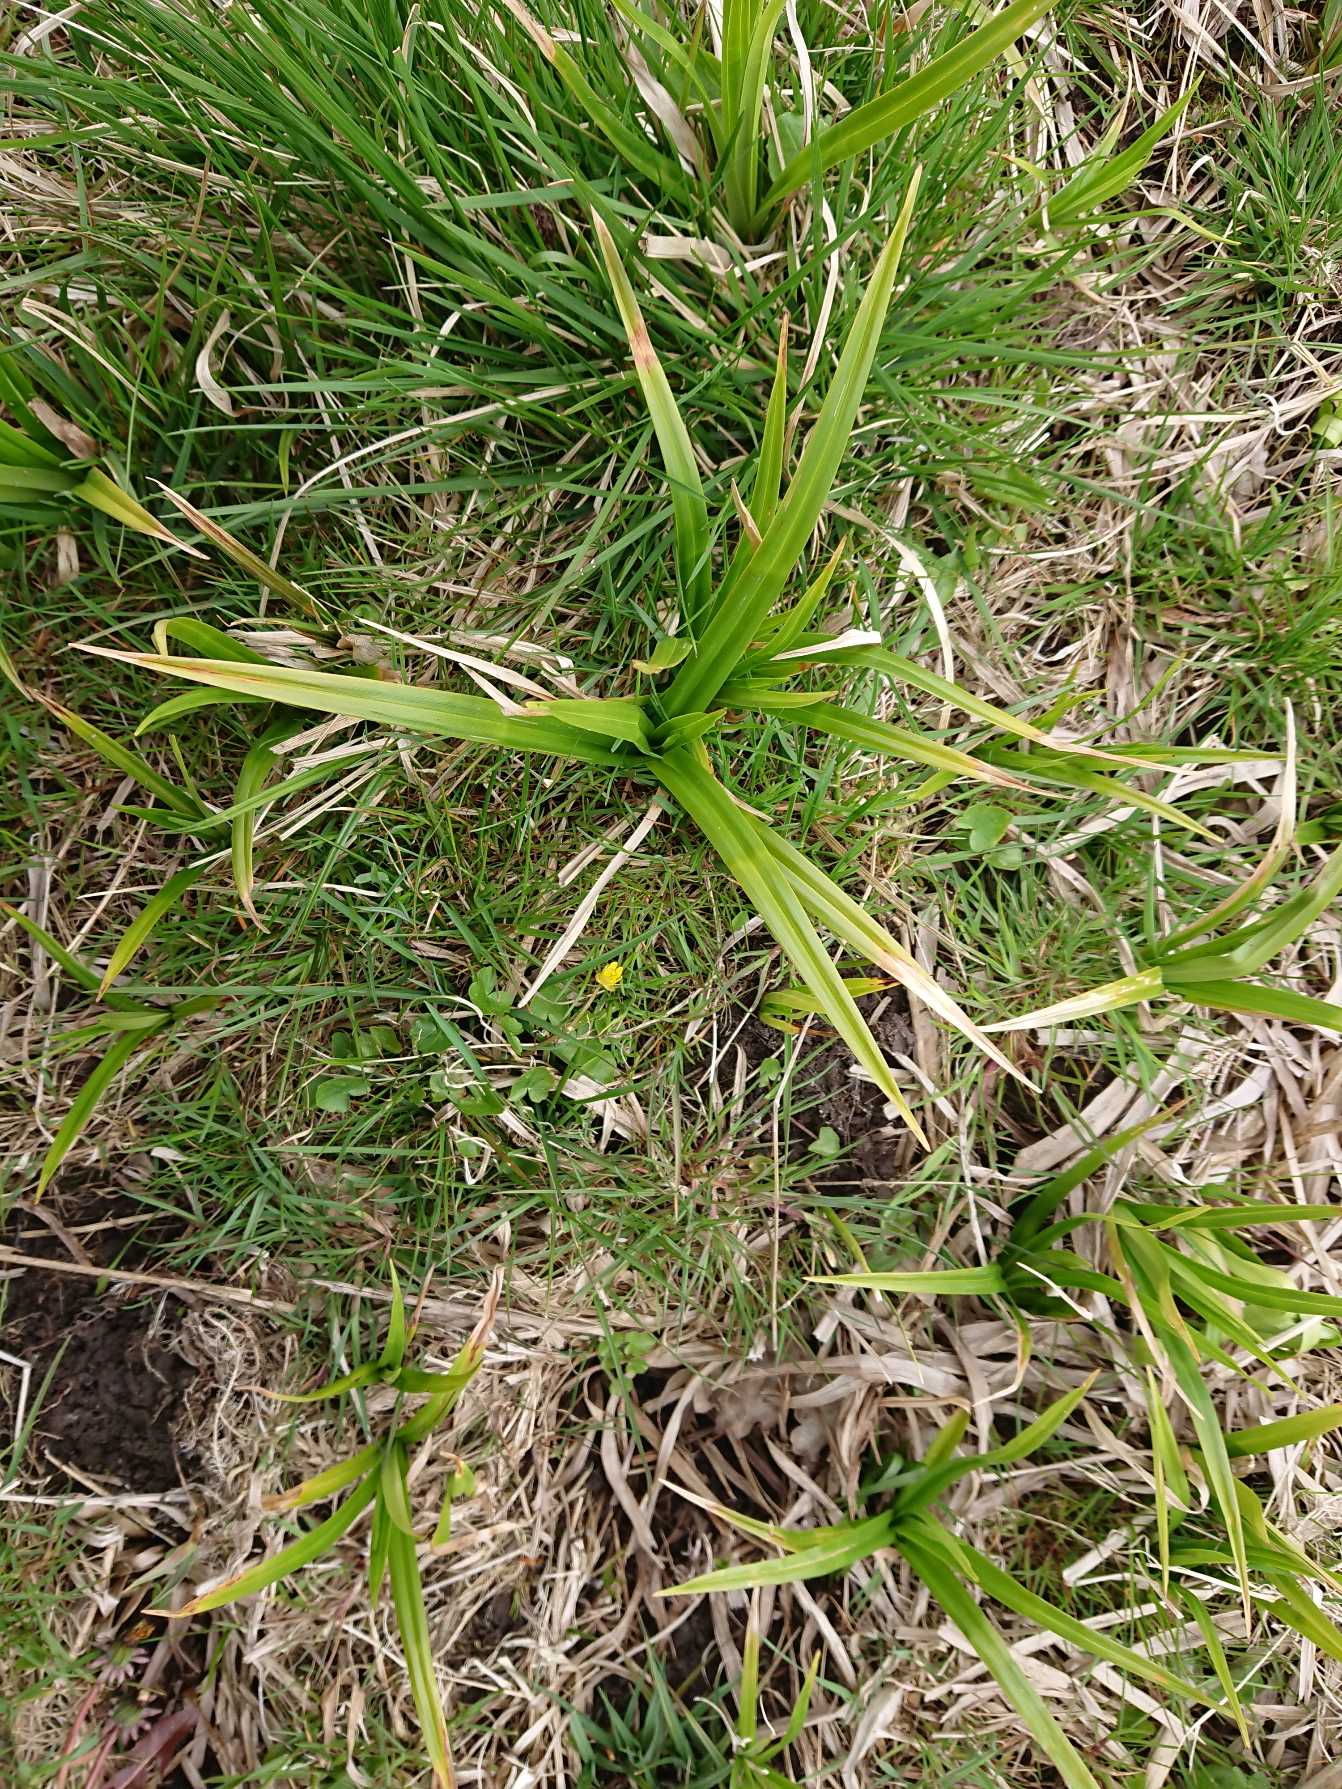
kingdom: Plantae
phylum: Tracheophyta
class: Liliopsida
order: Poales
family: Cyperaceae
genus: Scirpus
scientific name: Scirpus sylvaticus
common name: Skov-kogleaks
